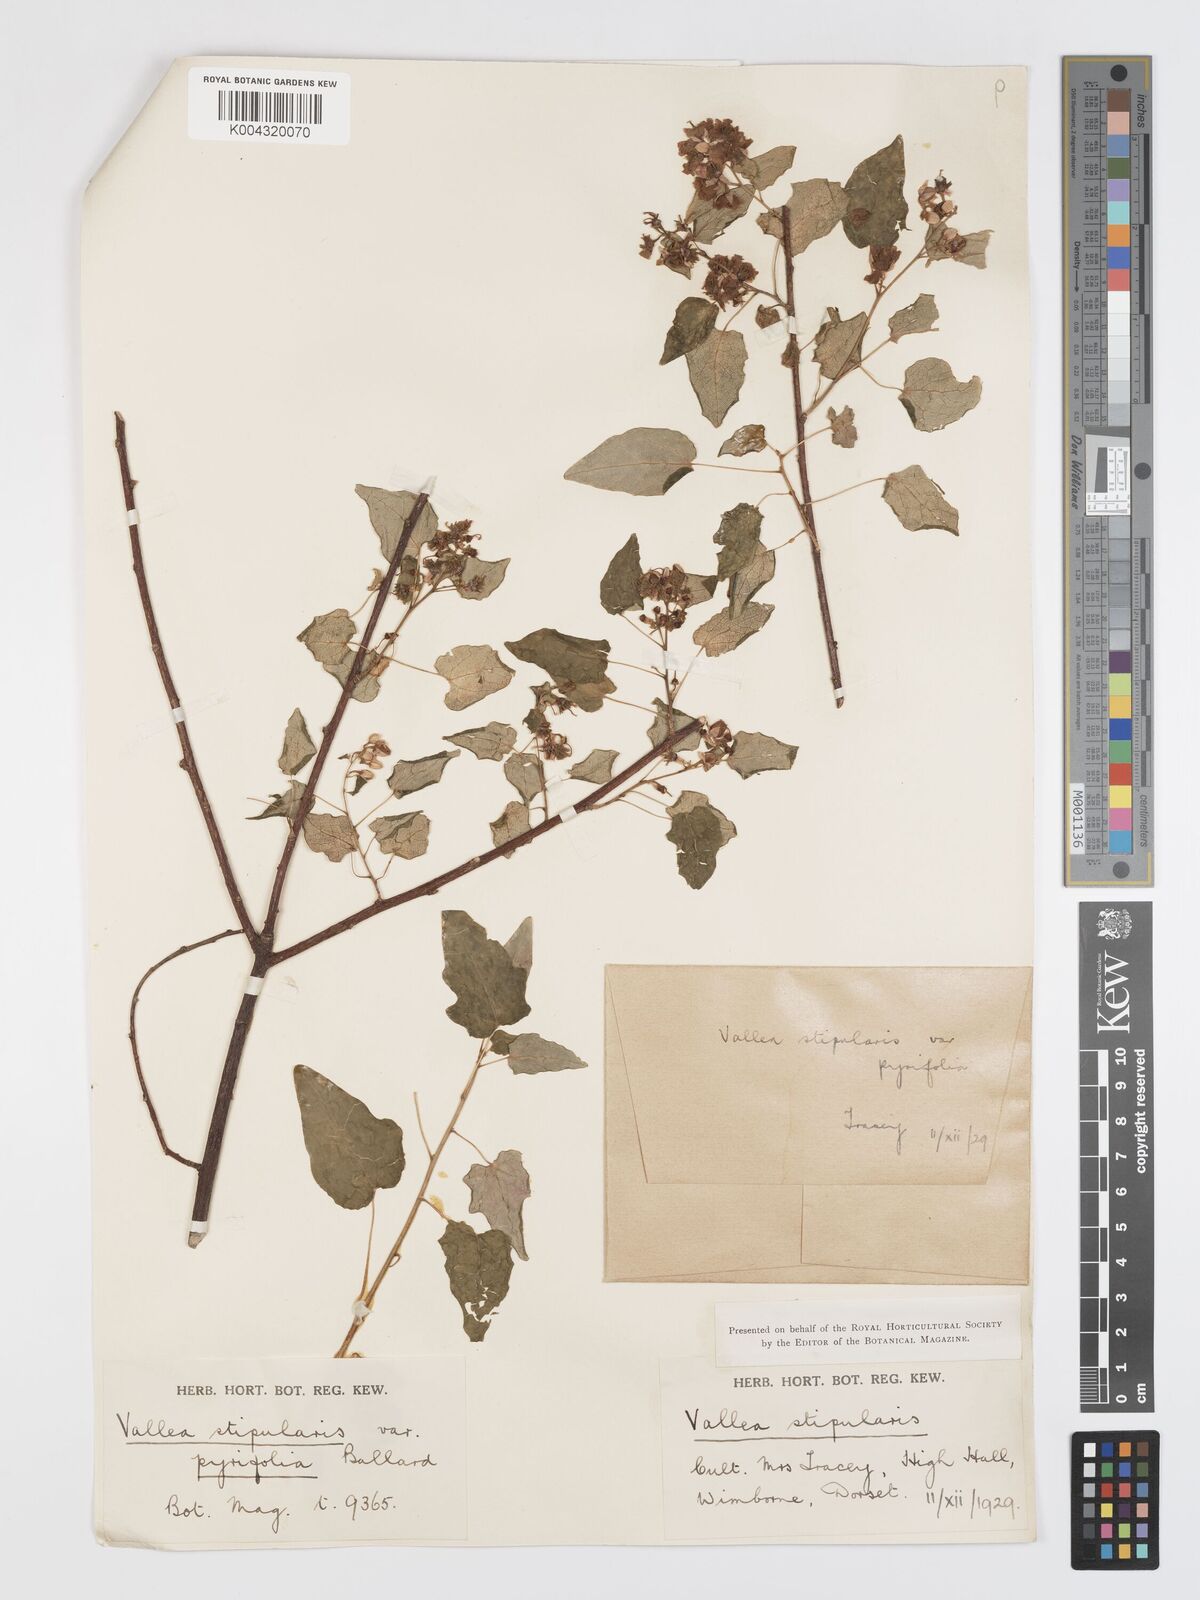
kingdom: Plantae
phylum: Tracheophyta
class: Magnoliopsida
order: Oxalidales
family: Elaeocarpaceae
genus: Vallea
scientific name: Vallea stipularis
